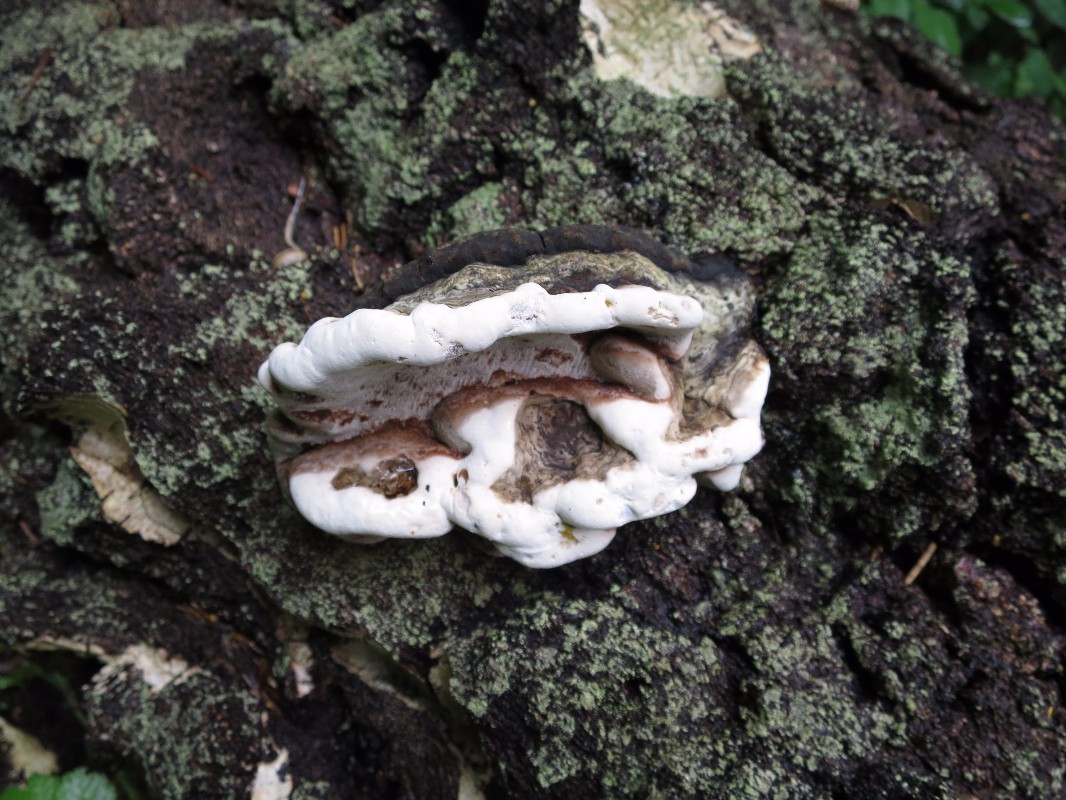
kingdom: Fungi
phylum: Basidiomycota
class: Agaricomycetes
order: Polyporales
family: Polyporaceae
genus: Ganoderma
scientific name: Ganoderma applanatum
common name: flad lakporesvamp
